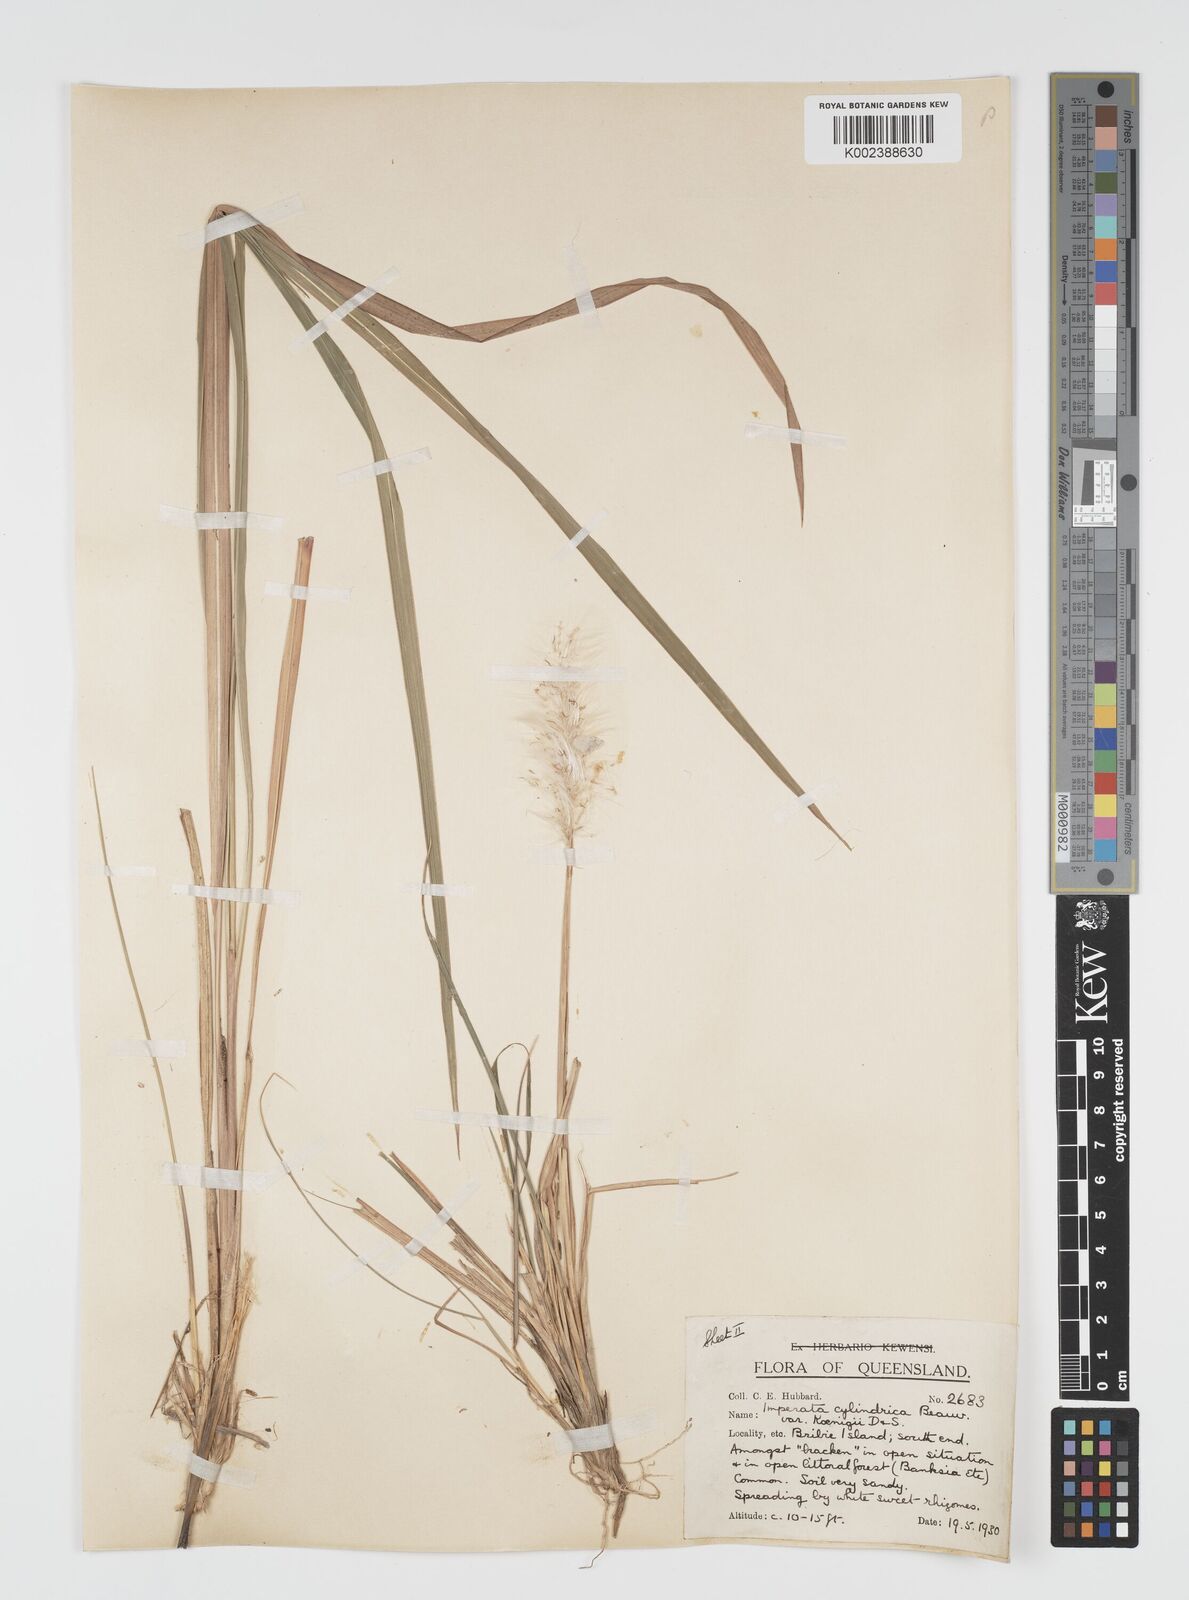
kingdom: Plantae
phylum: Tracheophyta
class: Liliopsida
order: Poales
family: Poaceae
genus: Imperata
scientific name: Imperata cylindrica
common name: Cogongrass
